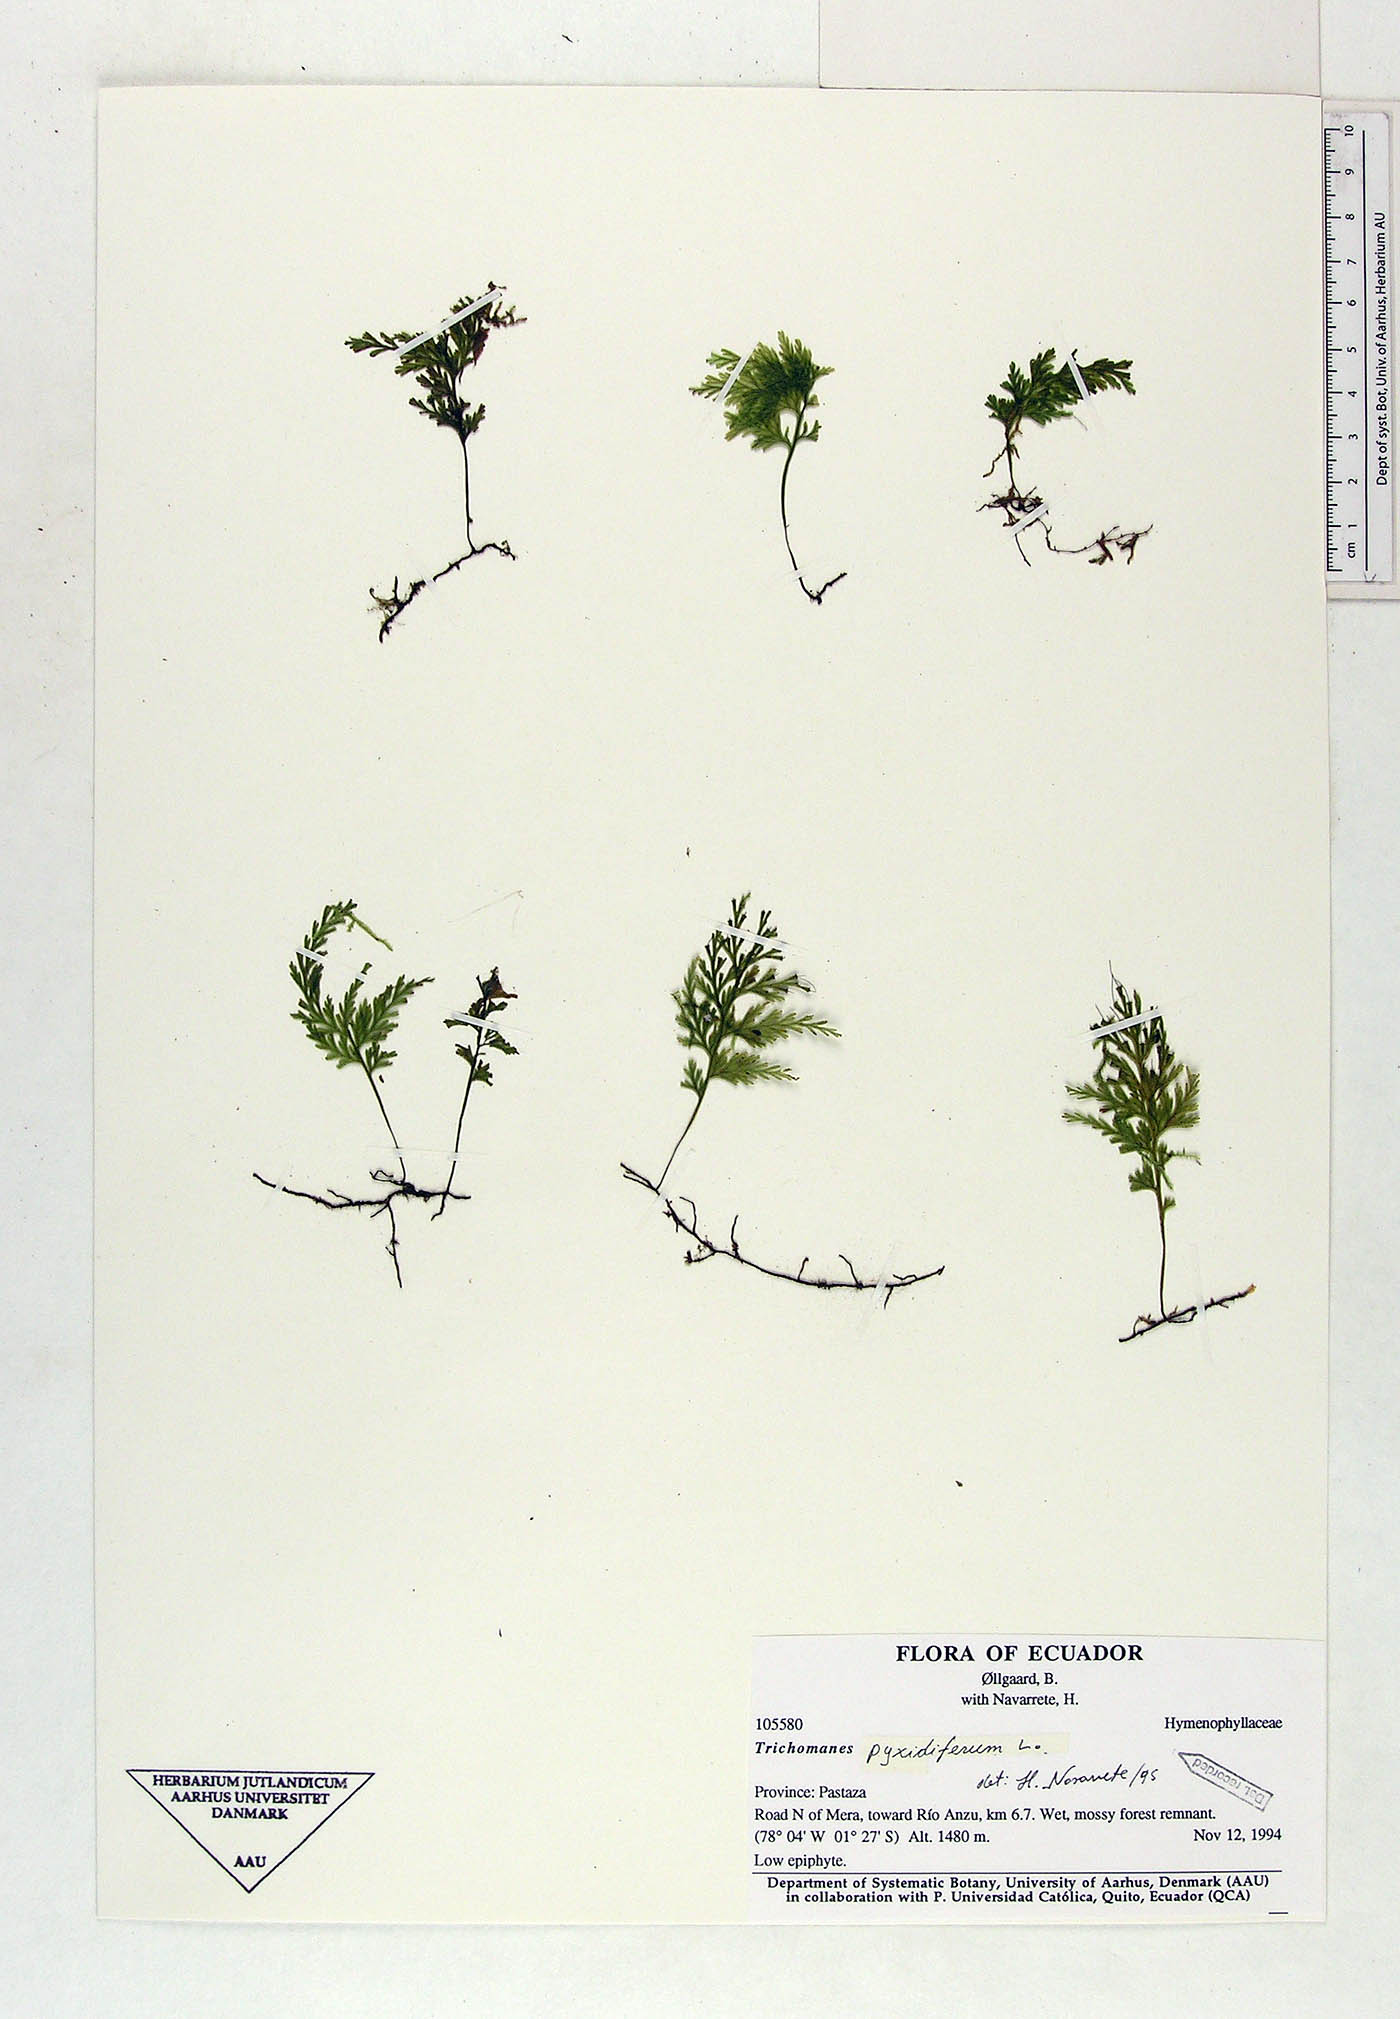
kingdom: Plantae
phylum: Tracheophyta
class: Polypodiopsida
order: Hymenophyllales
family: Hymenophyllaceae
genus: Polyphlebium
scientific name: Polyphlebium pyxidiferum
